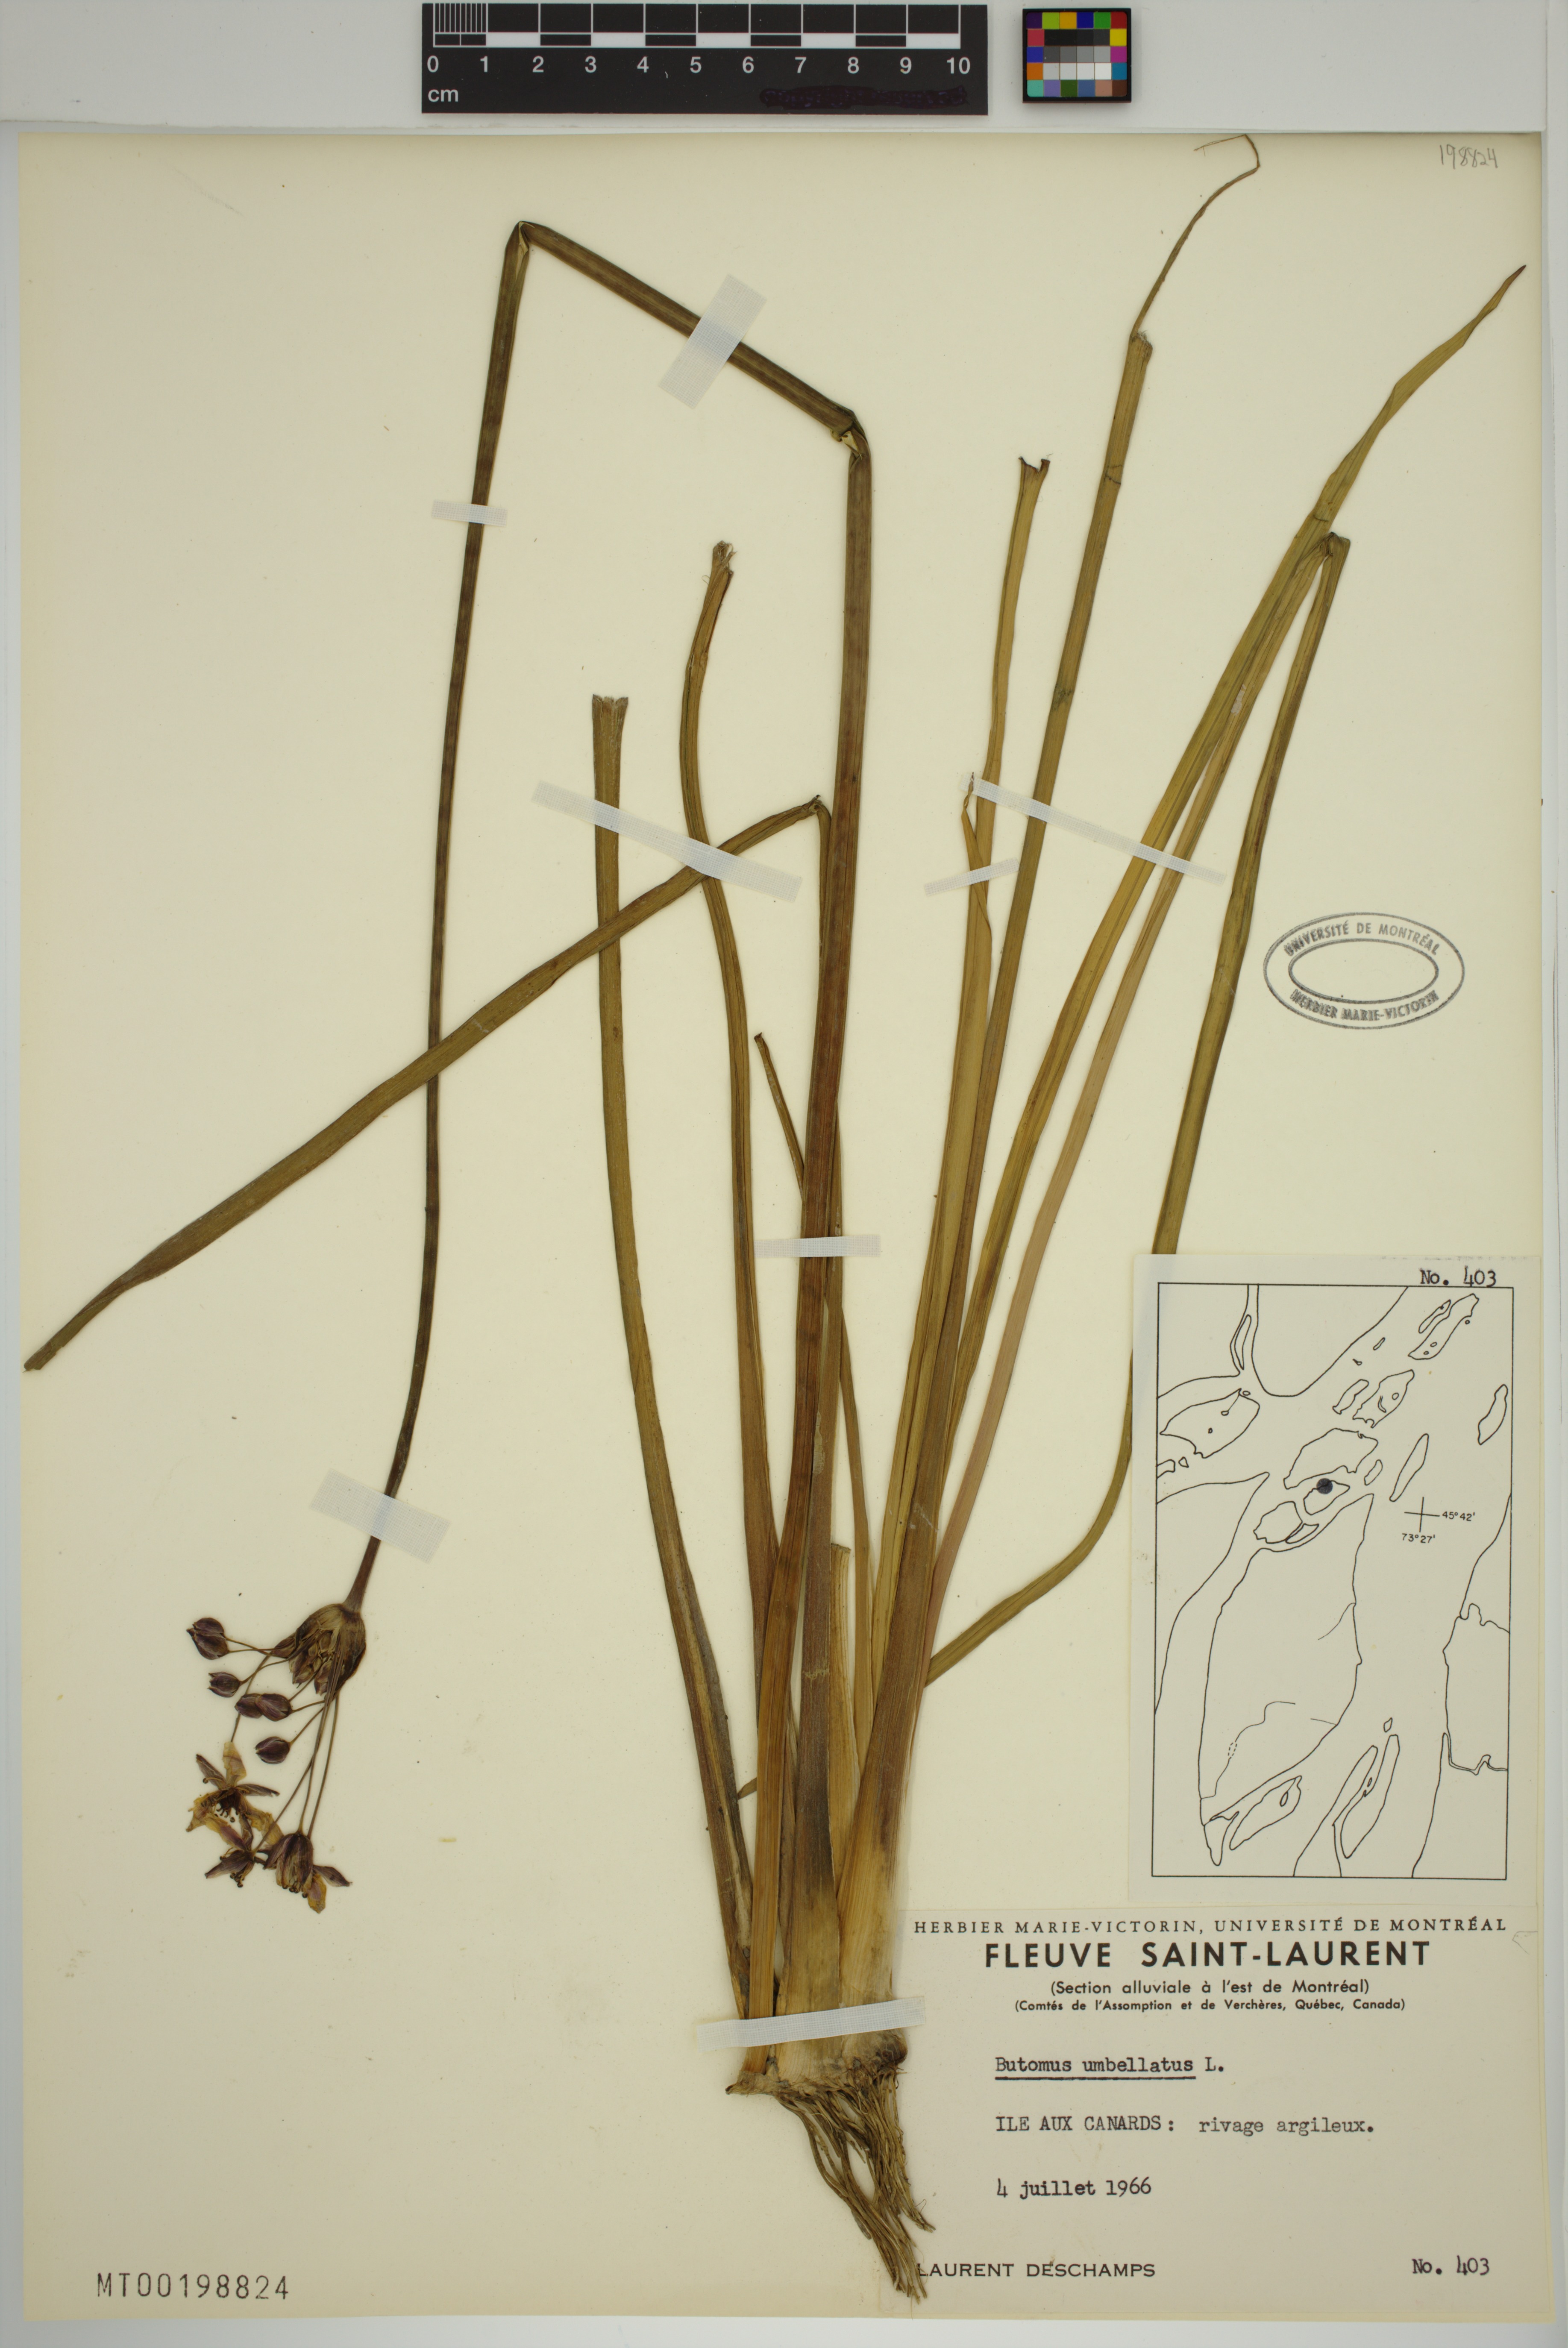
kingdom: Plantae
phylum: Tracheophyta
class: Liliopsida
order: Alismatales
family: Butomaceae
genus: Butomus
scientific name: Butomus umbellatus
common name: Flowering-rush
